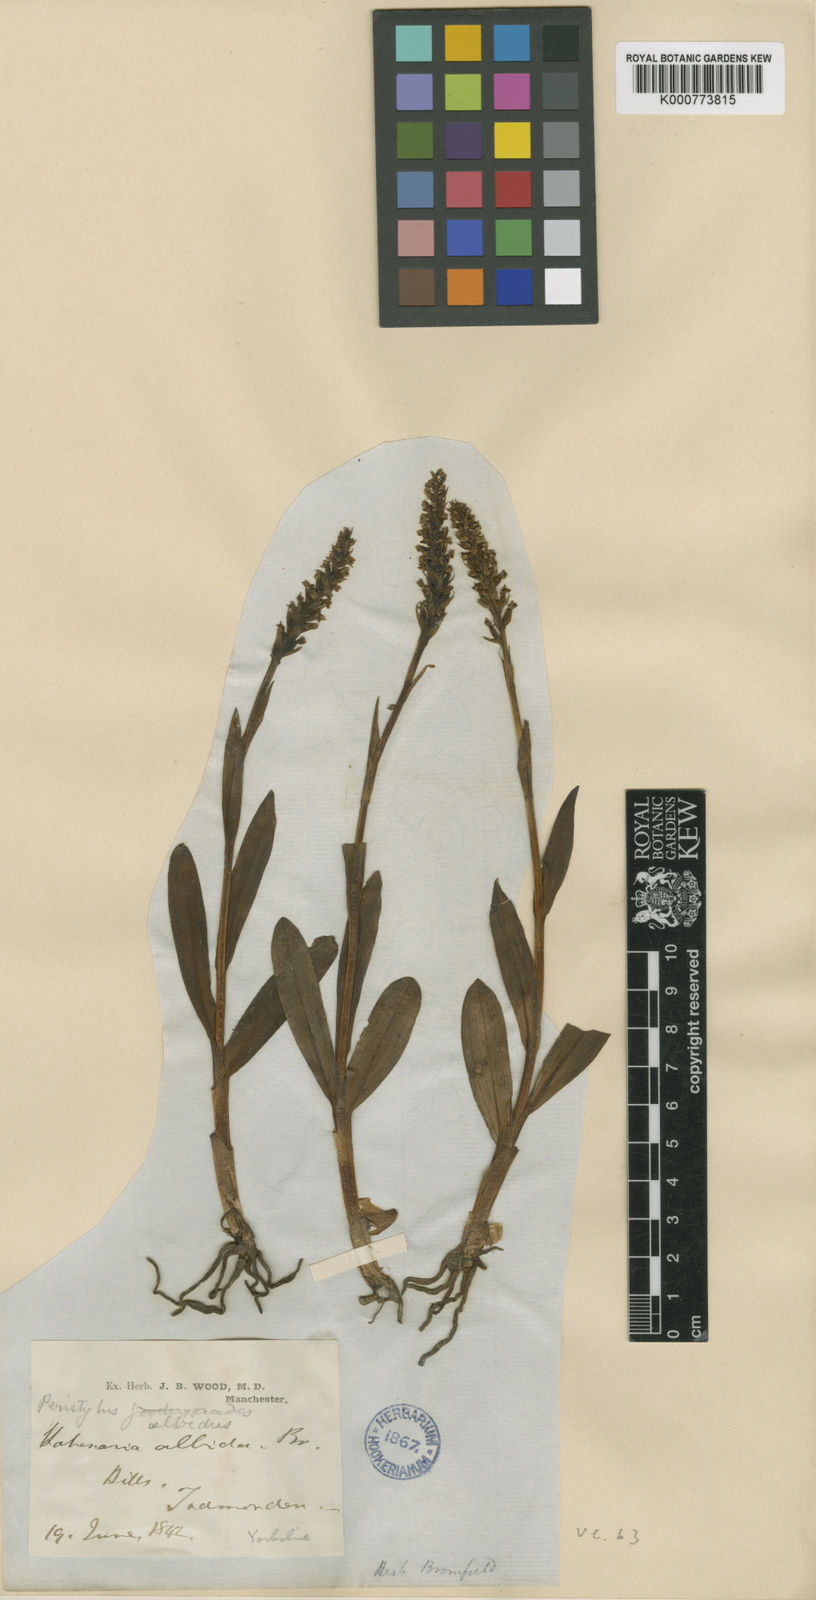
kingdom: Plantae
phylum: Tracheophyta
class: Liliopsida
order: Asparagales
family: Orchidaceae
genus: Pseudorchis
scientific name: Pseudorchis
